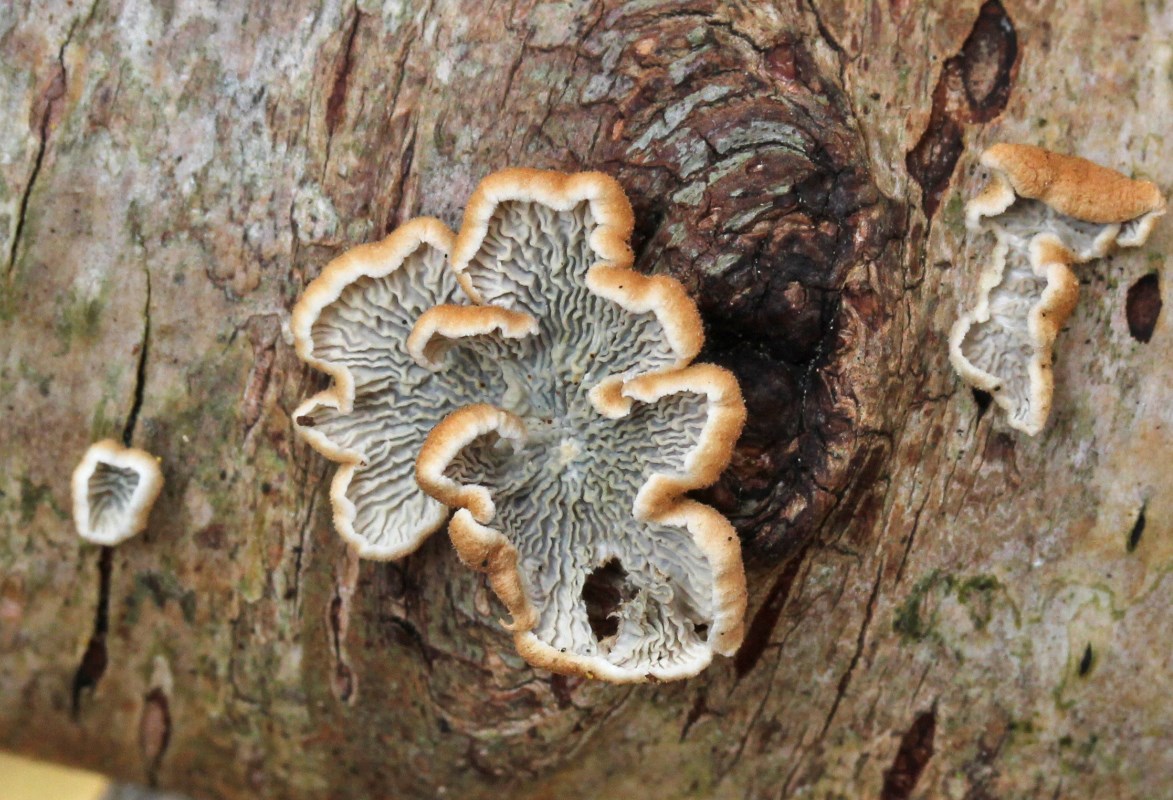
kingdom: Fungi
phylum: Basidiomycota
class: Agaricomycetes
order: Amylocorticiales
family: Amylocorticiaceae
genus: Plicaturopsis
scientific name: Plicaturopsis crispa
